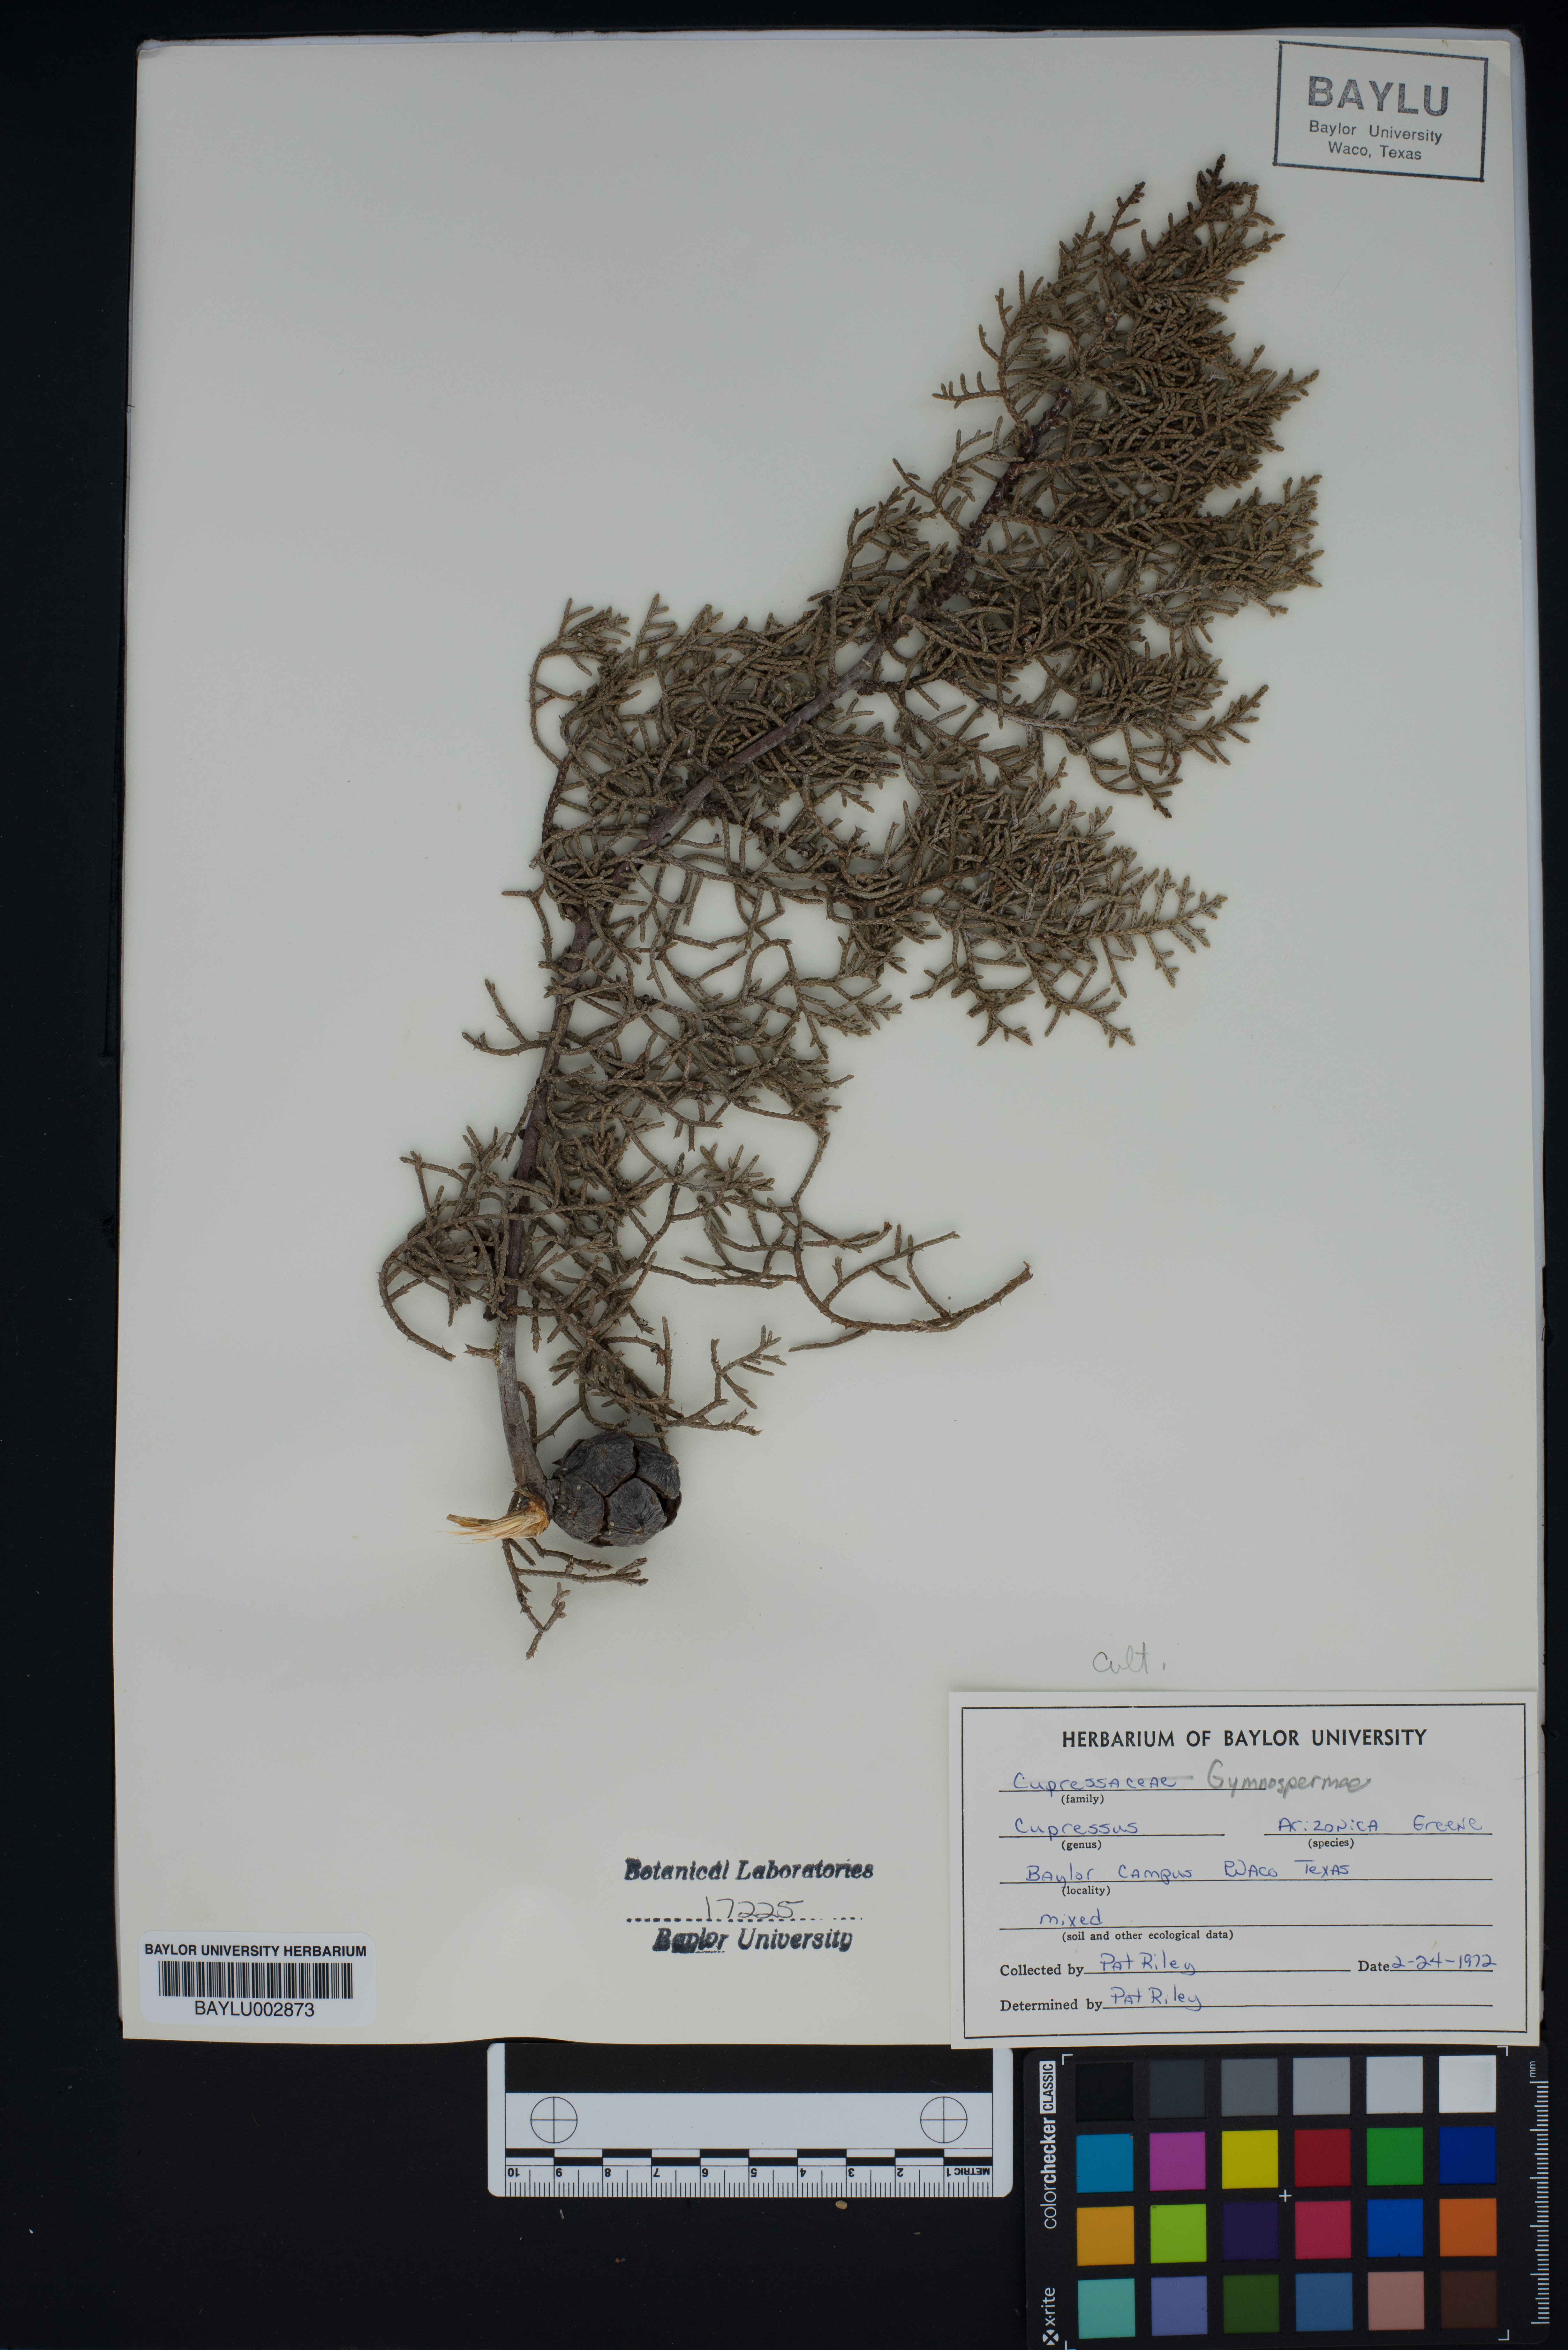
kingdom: Plantae
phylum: Tracheophyta
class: Pinopsida
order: Pinales
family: Cupressaceae
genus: Cupressus
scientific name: Cupressus arizonica
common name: Arizona cypress
